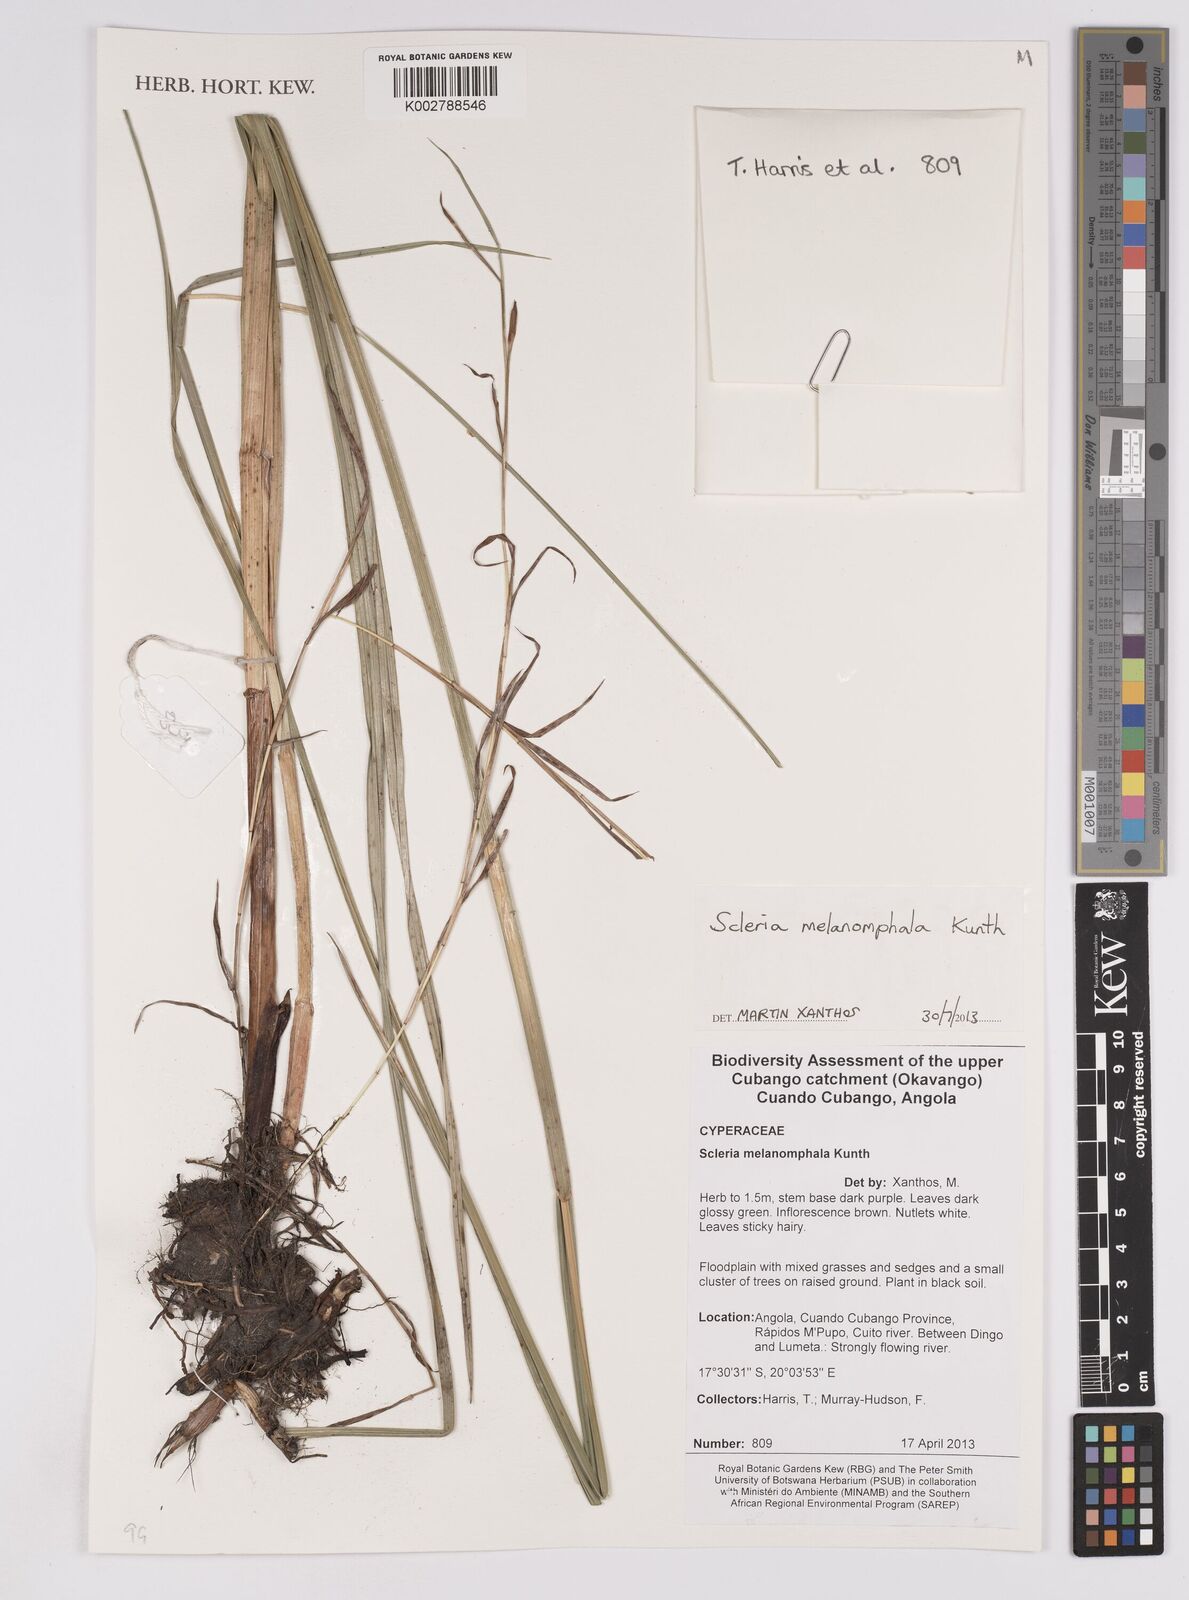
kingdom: Plantae
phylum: Tracheophyta
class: Liliopsida
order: Poales
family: Cyperaceae
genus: Scleria
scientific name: Scleria melanomphala
